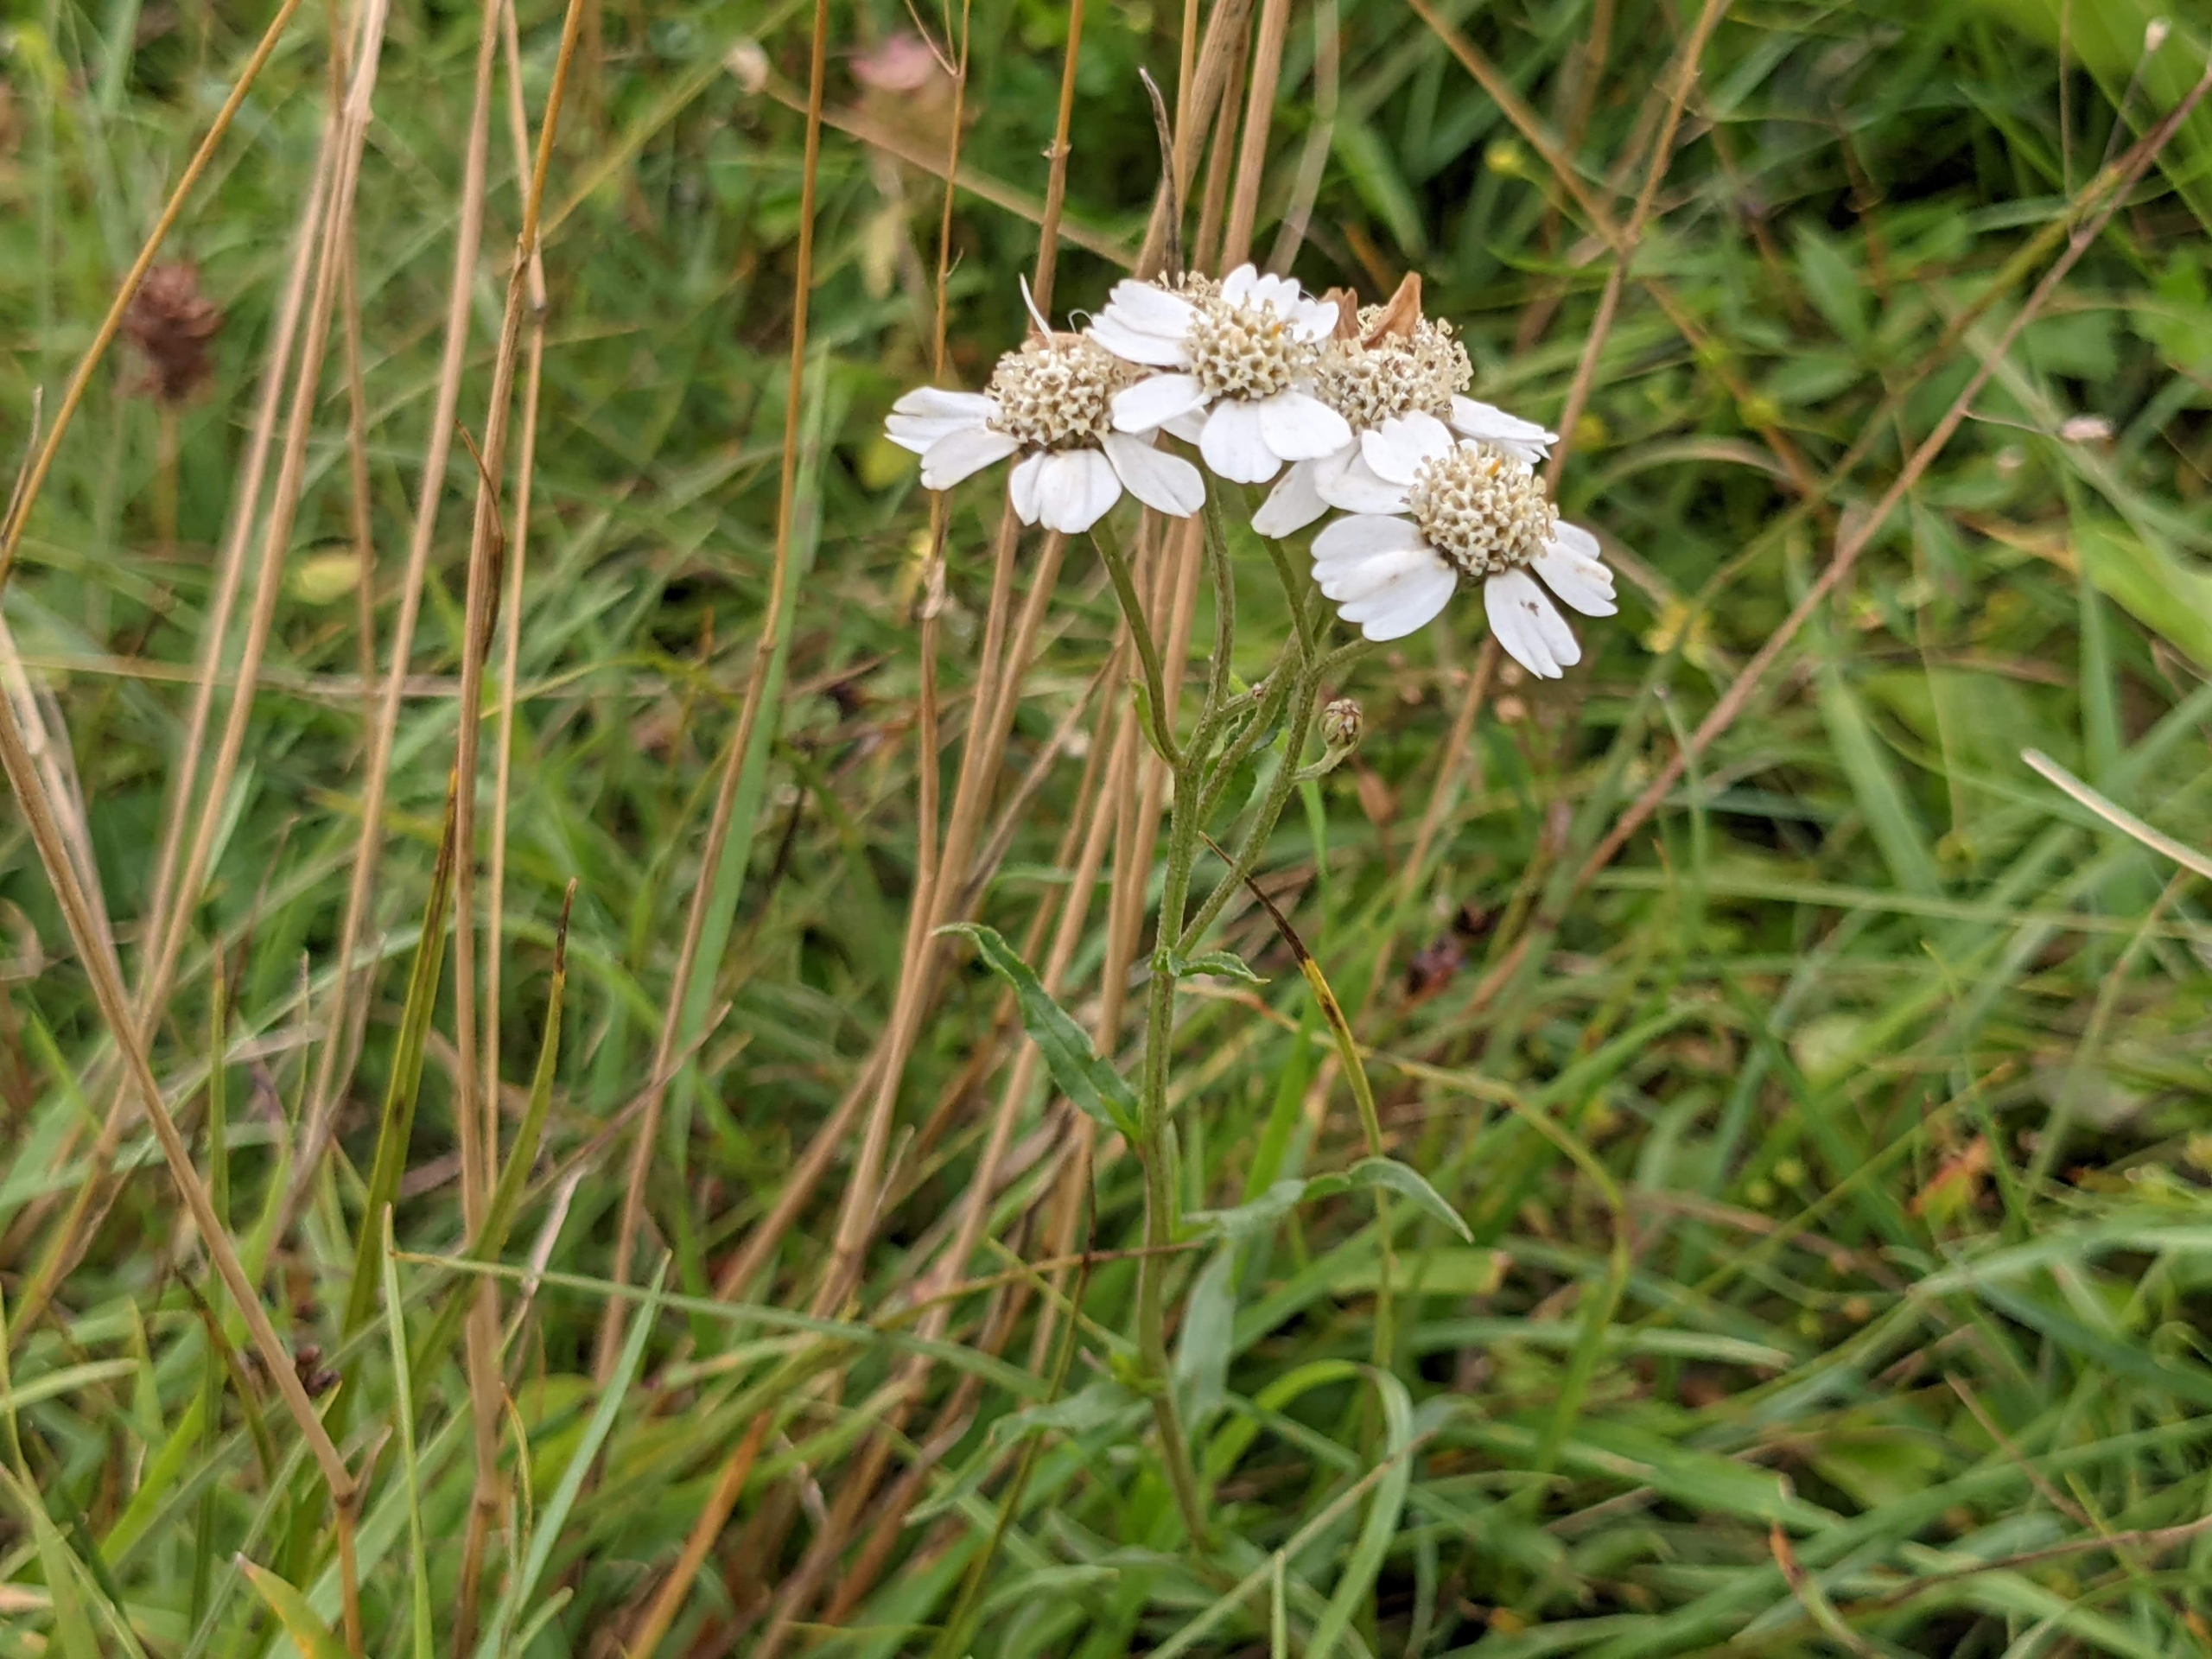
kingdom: Plantae
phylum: Tracheophyta
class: Magnoliopsida
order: Asterales
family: Asteraceae
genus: Achillea
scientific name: Achillea ptarmica
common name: Nyse-røllike
